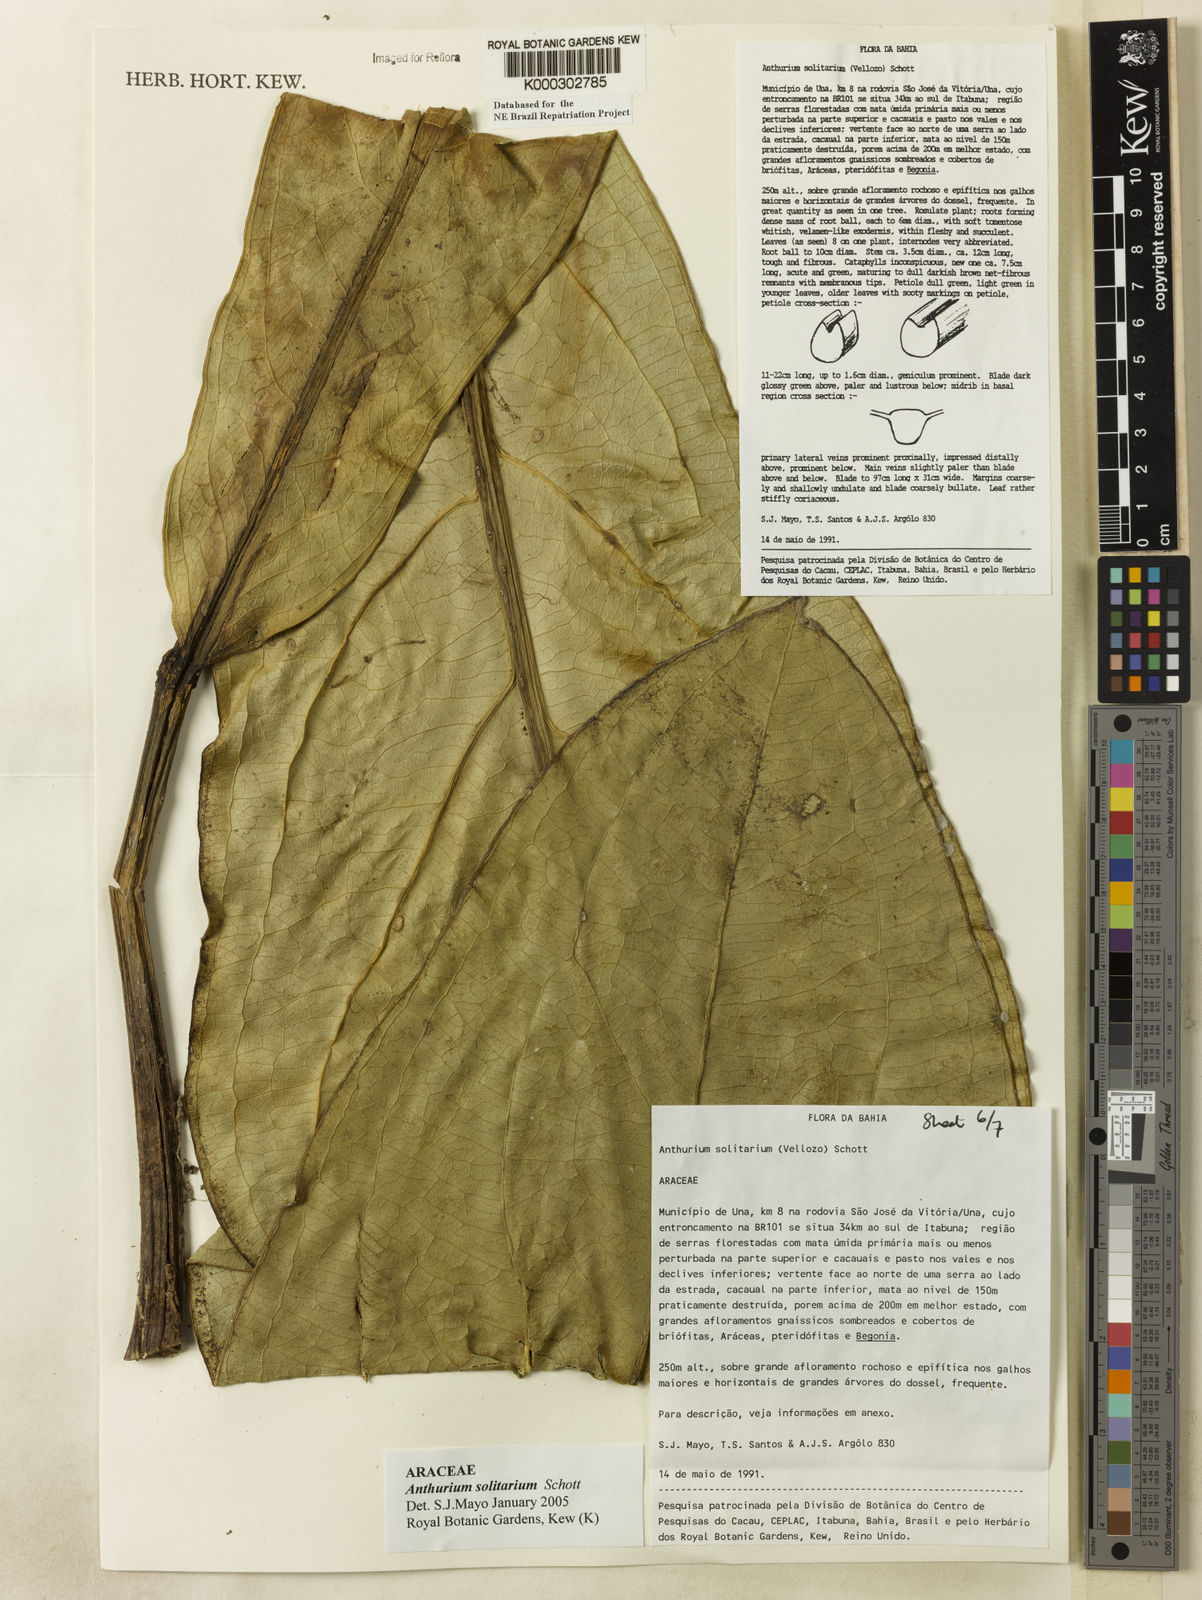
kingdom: Plantae
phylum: Tracheophyta
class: Liliopsida
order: Alismatales
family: Araceae
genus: Anthurium
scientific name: Anthurium solitarium
